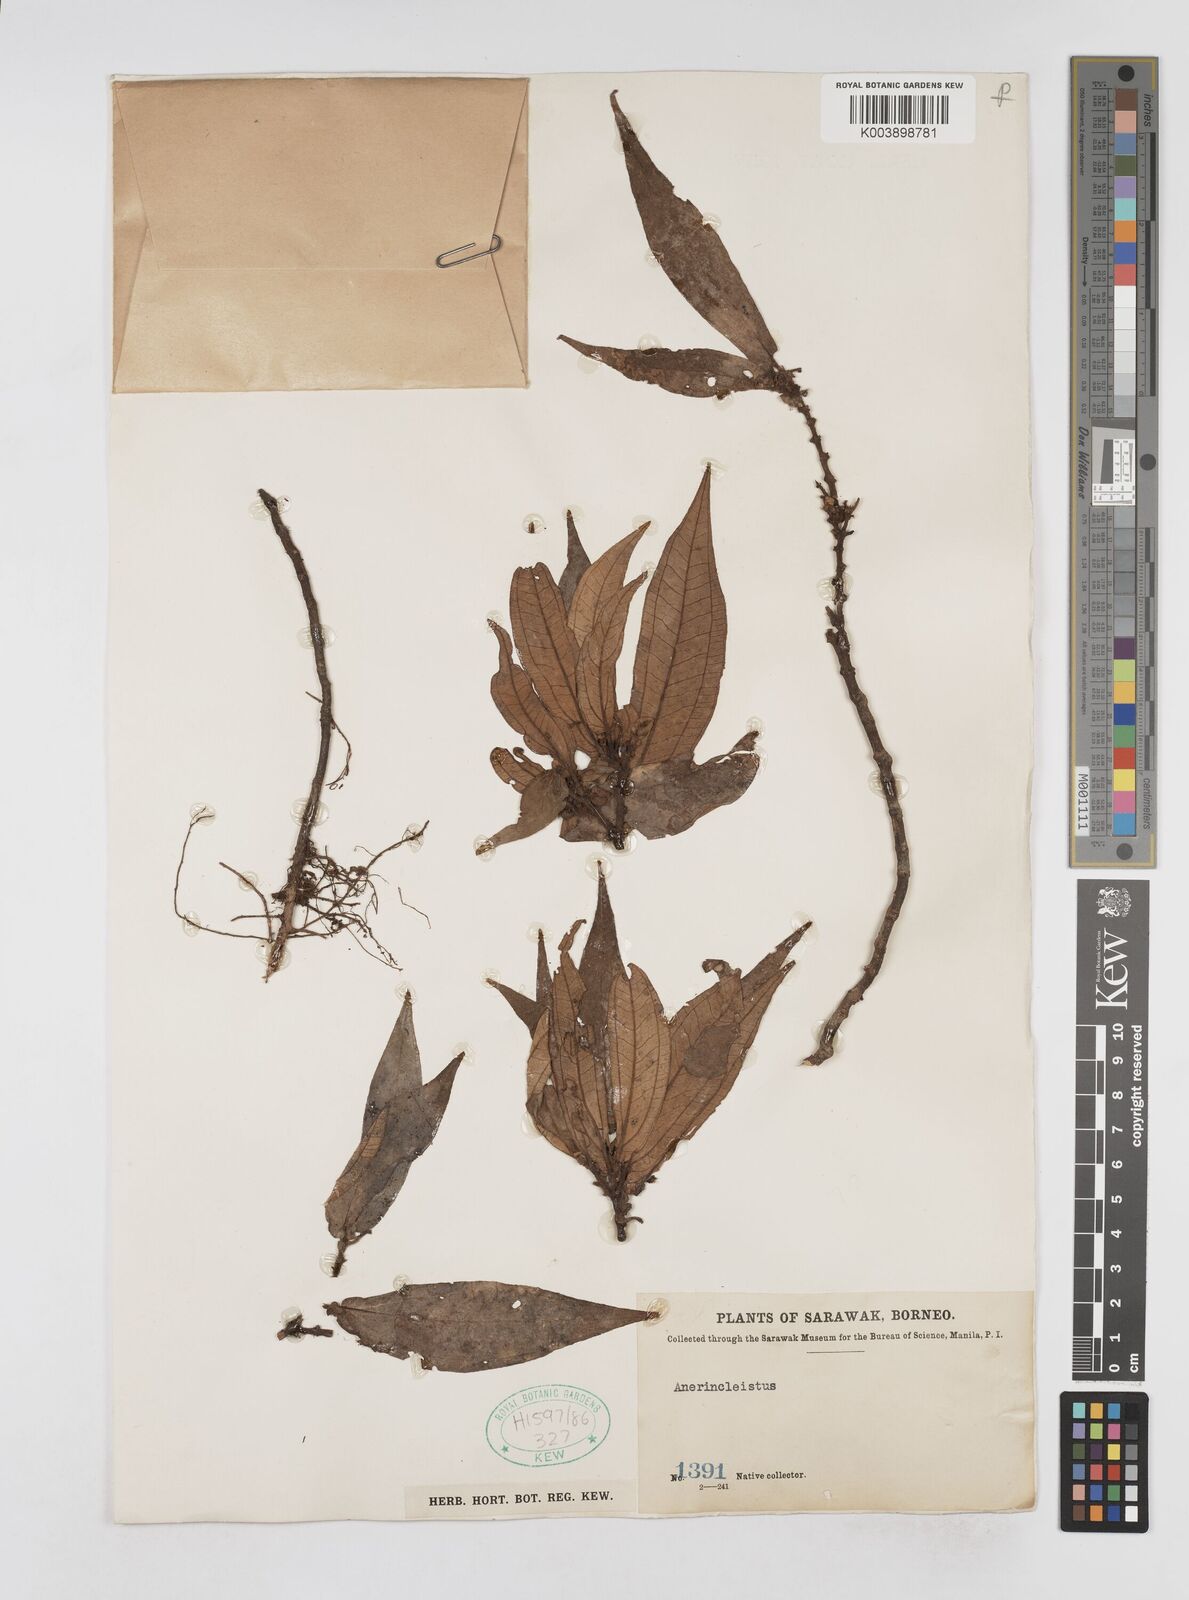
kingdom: Plantae
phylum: Tracheophyta
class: Magnoliopsida
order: Myrtales
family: Melastomataceae
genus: Sonerila
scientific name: Sonerila
